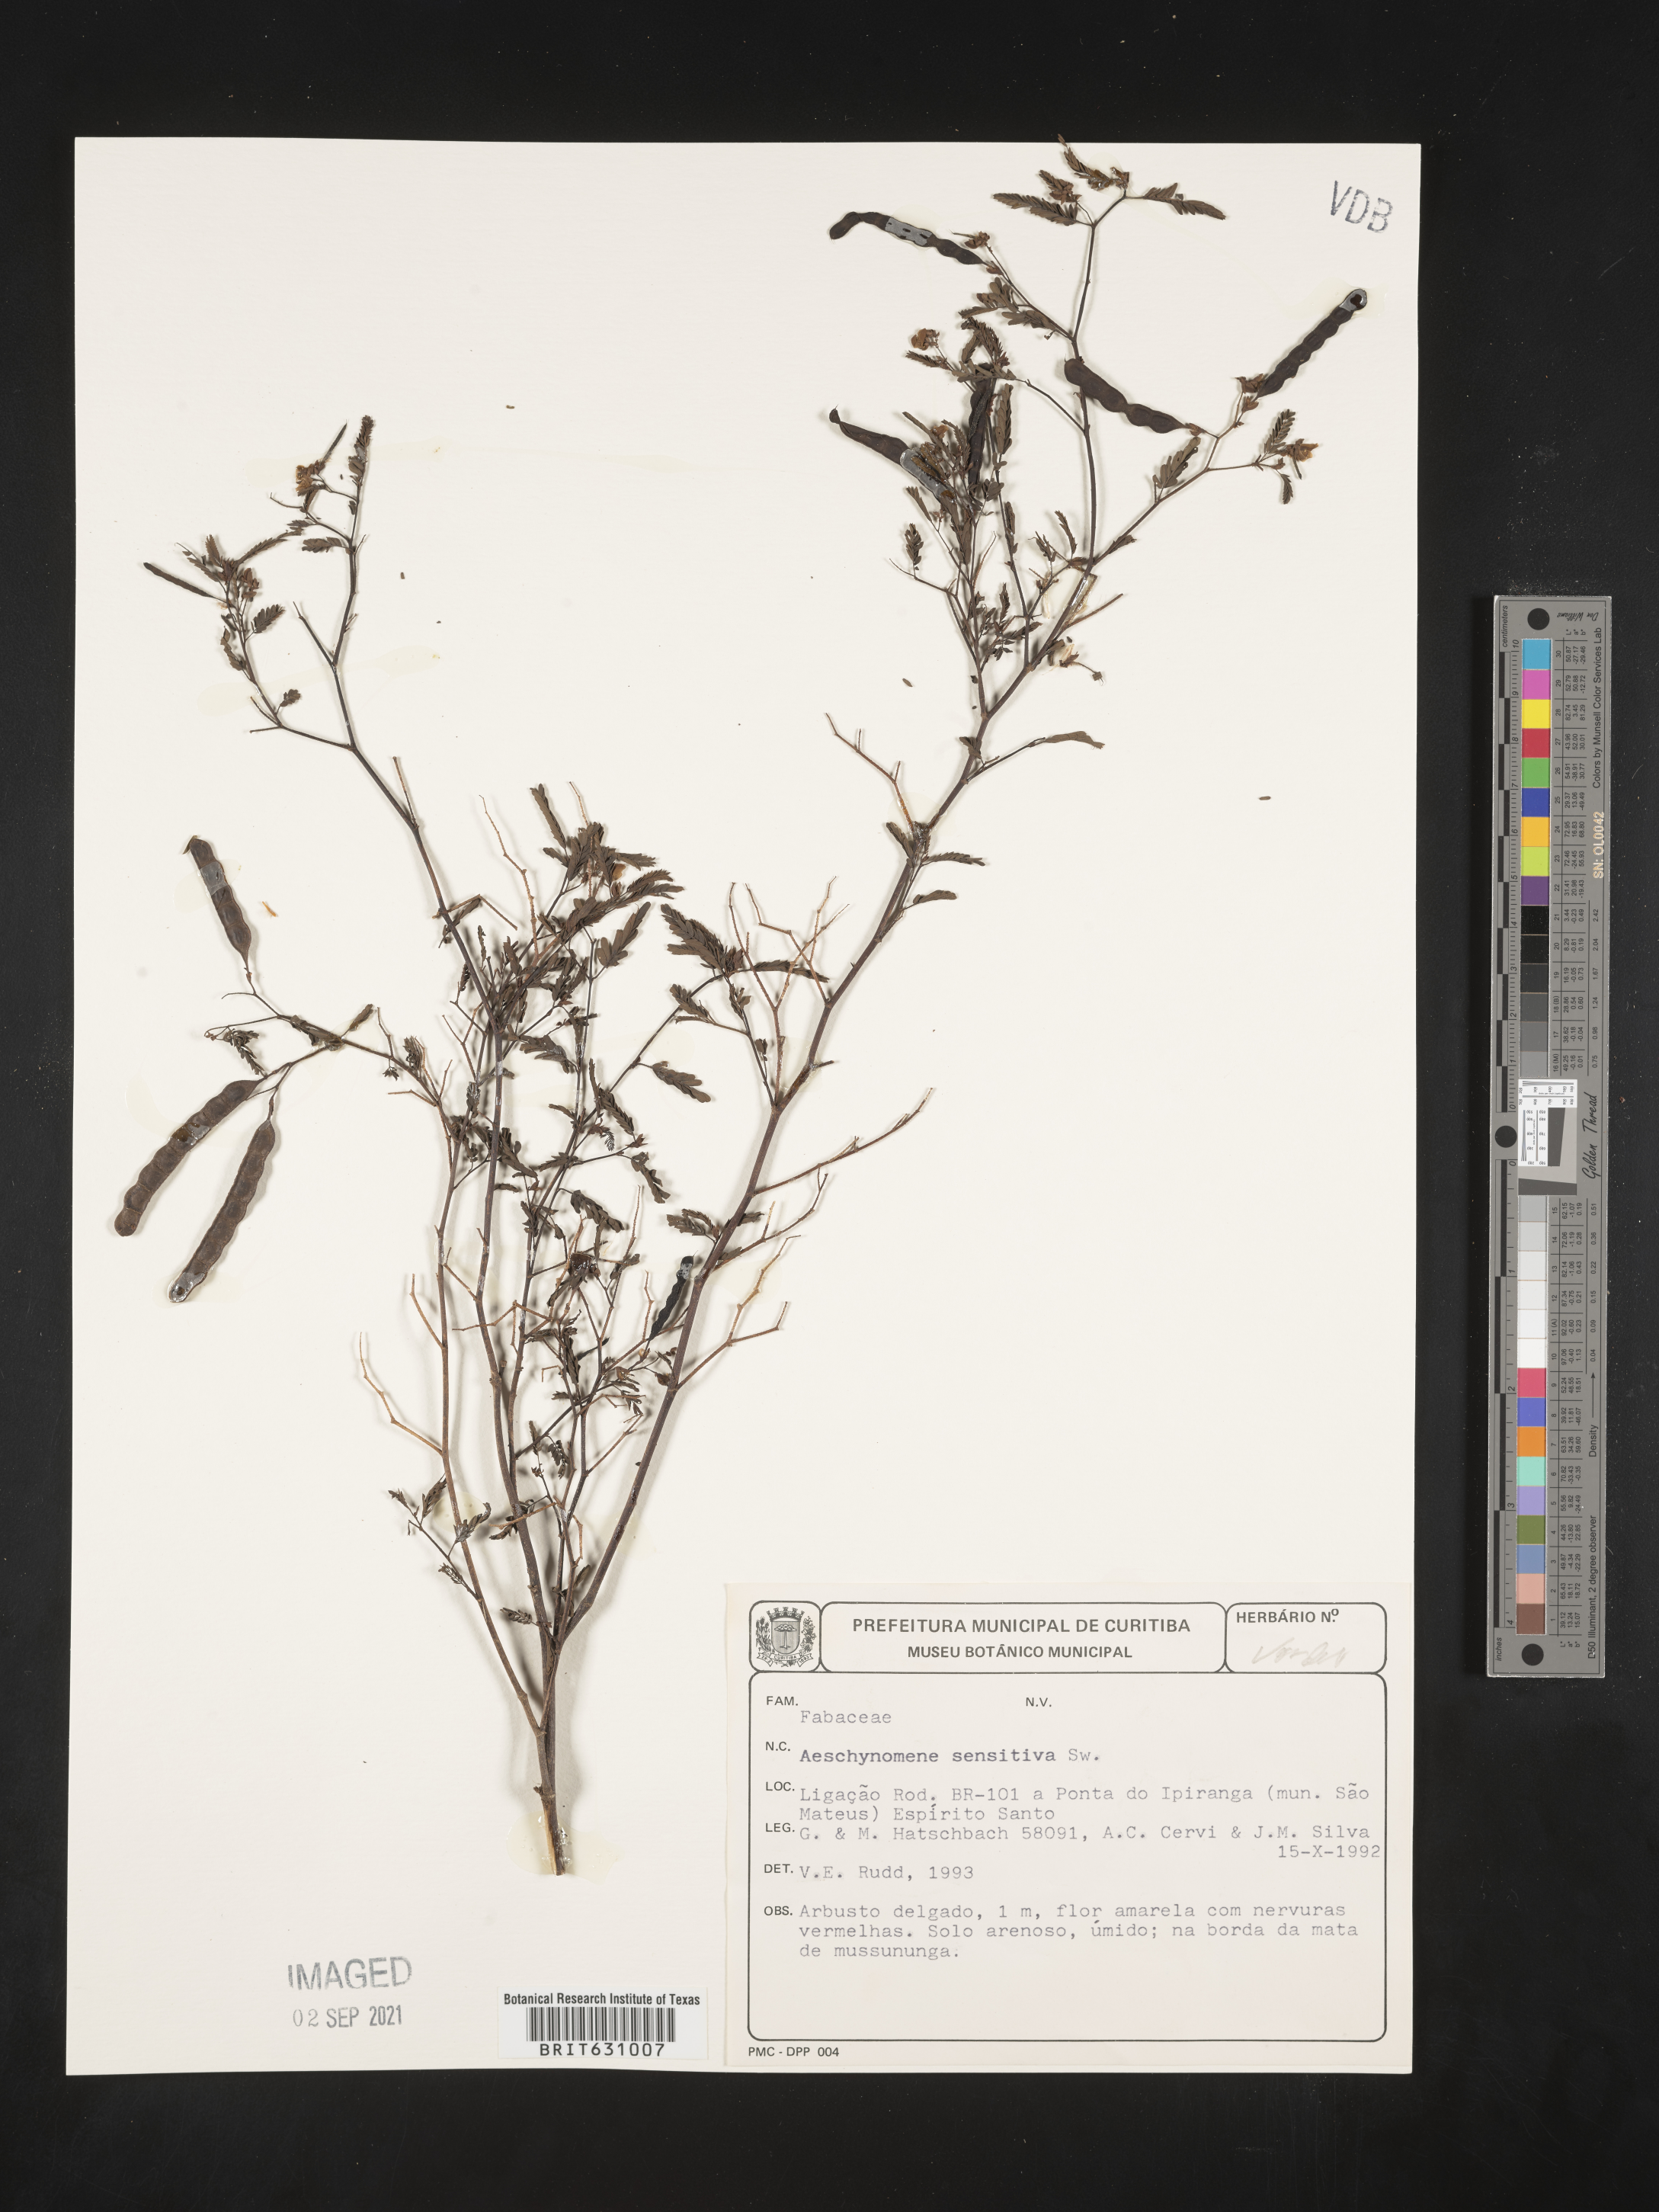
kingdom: Plantae
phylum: Tracheophyta
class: Magnoliopsida
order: Fabales
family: Fabaceae
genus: Aeschynomene
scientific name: Aeschynomene
